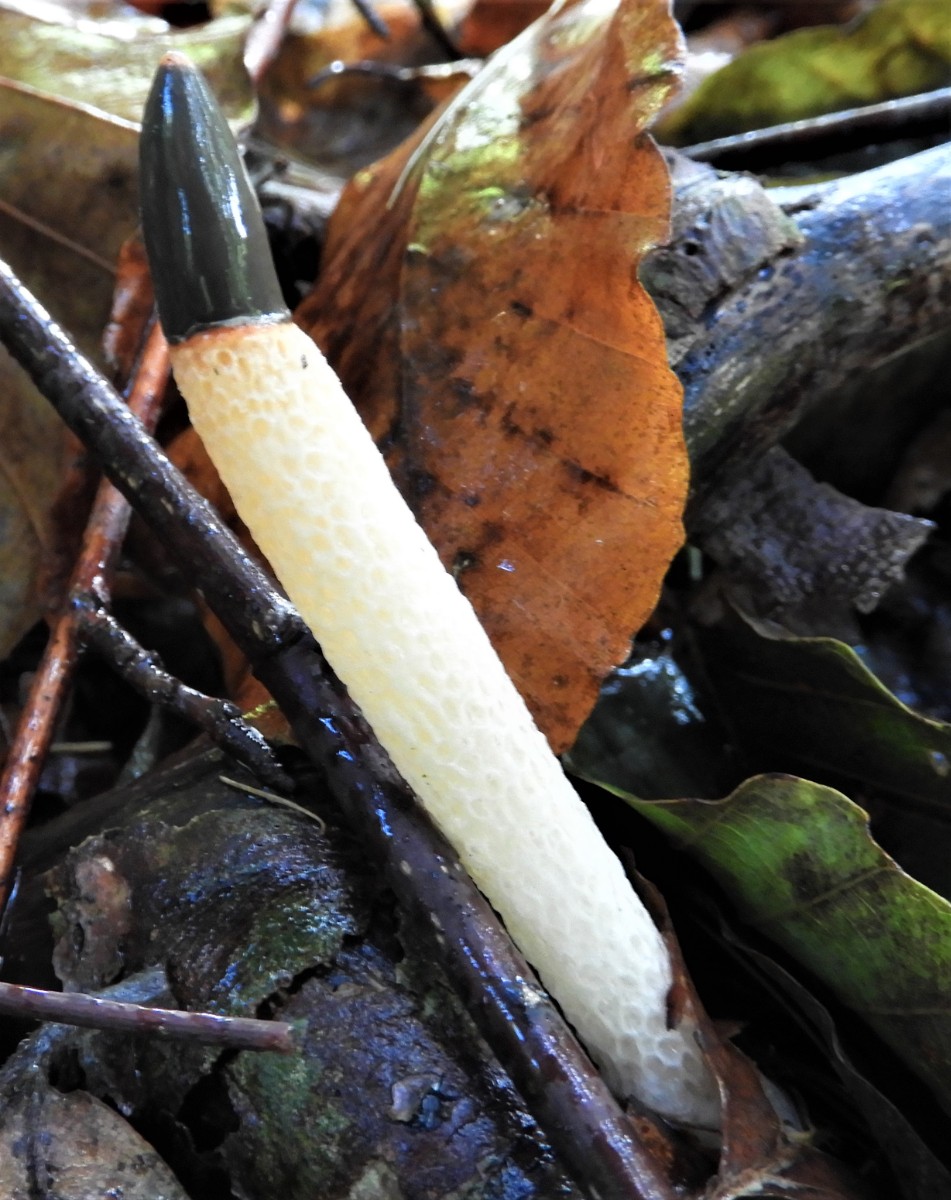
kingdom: Fungi
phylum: Basidiomycota
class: Agaricomycetes
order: Phallales
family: Phallaceae
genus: Mutinus
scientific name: Mutinus caninus
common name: hunde-stinksvamp
